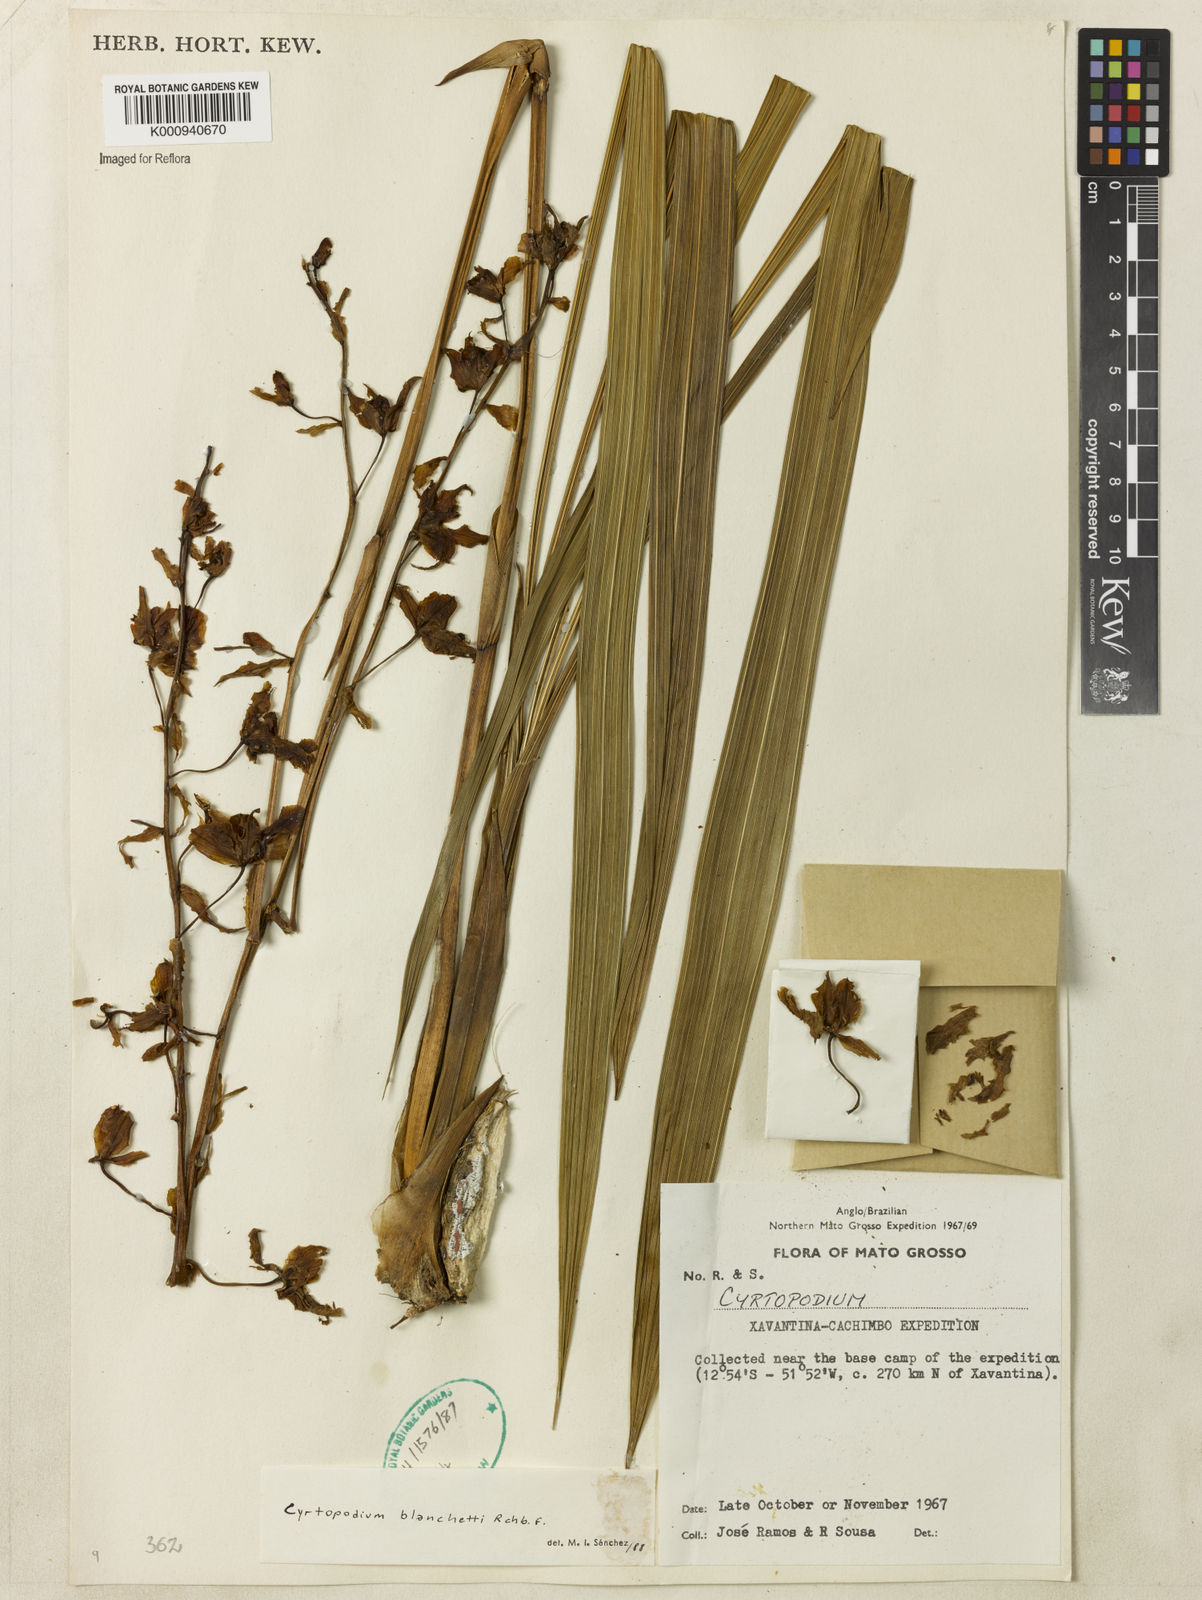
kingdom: Plantae
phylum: Tracheophyta
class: Liliopsida
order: Asparagales
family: Orchidaceae
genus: Cyrtopodium
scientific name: Cyrtopodium blanchetii
